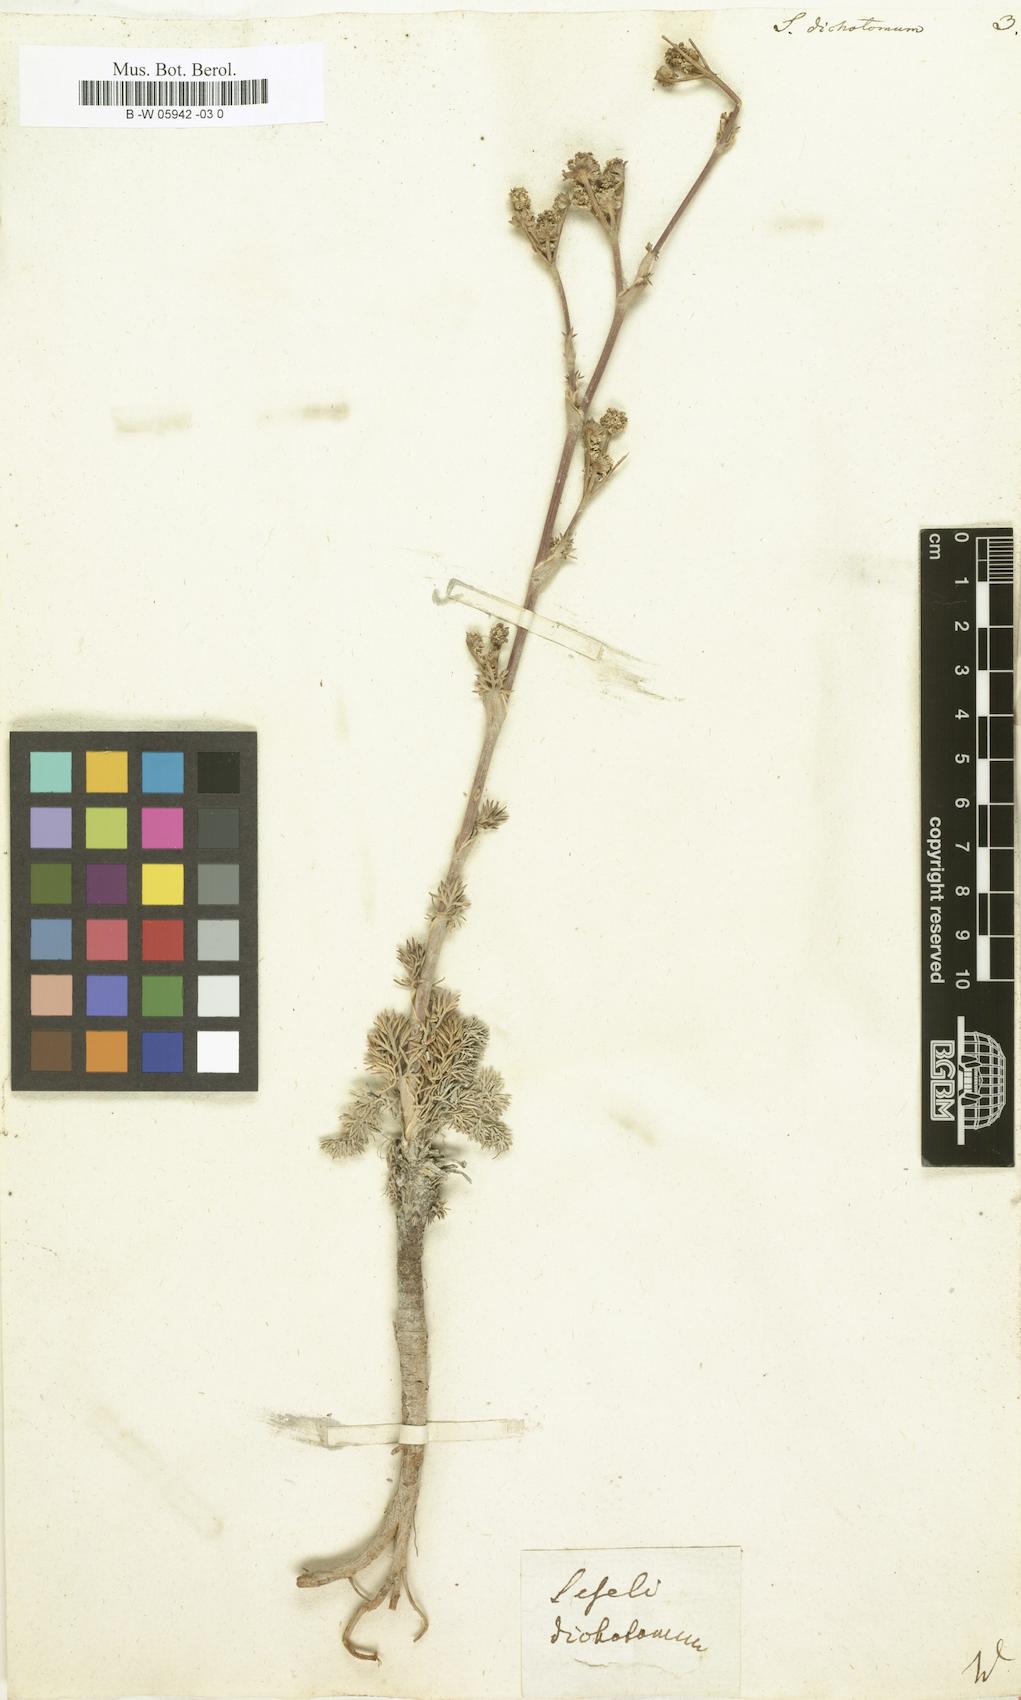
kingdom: Plantae
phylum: Tracheophyta
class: Magnoliopsida
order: Apiales
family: Apiaceae
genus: Seseli
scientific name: Seseli dichotomum
